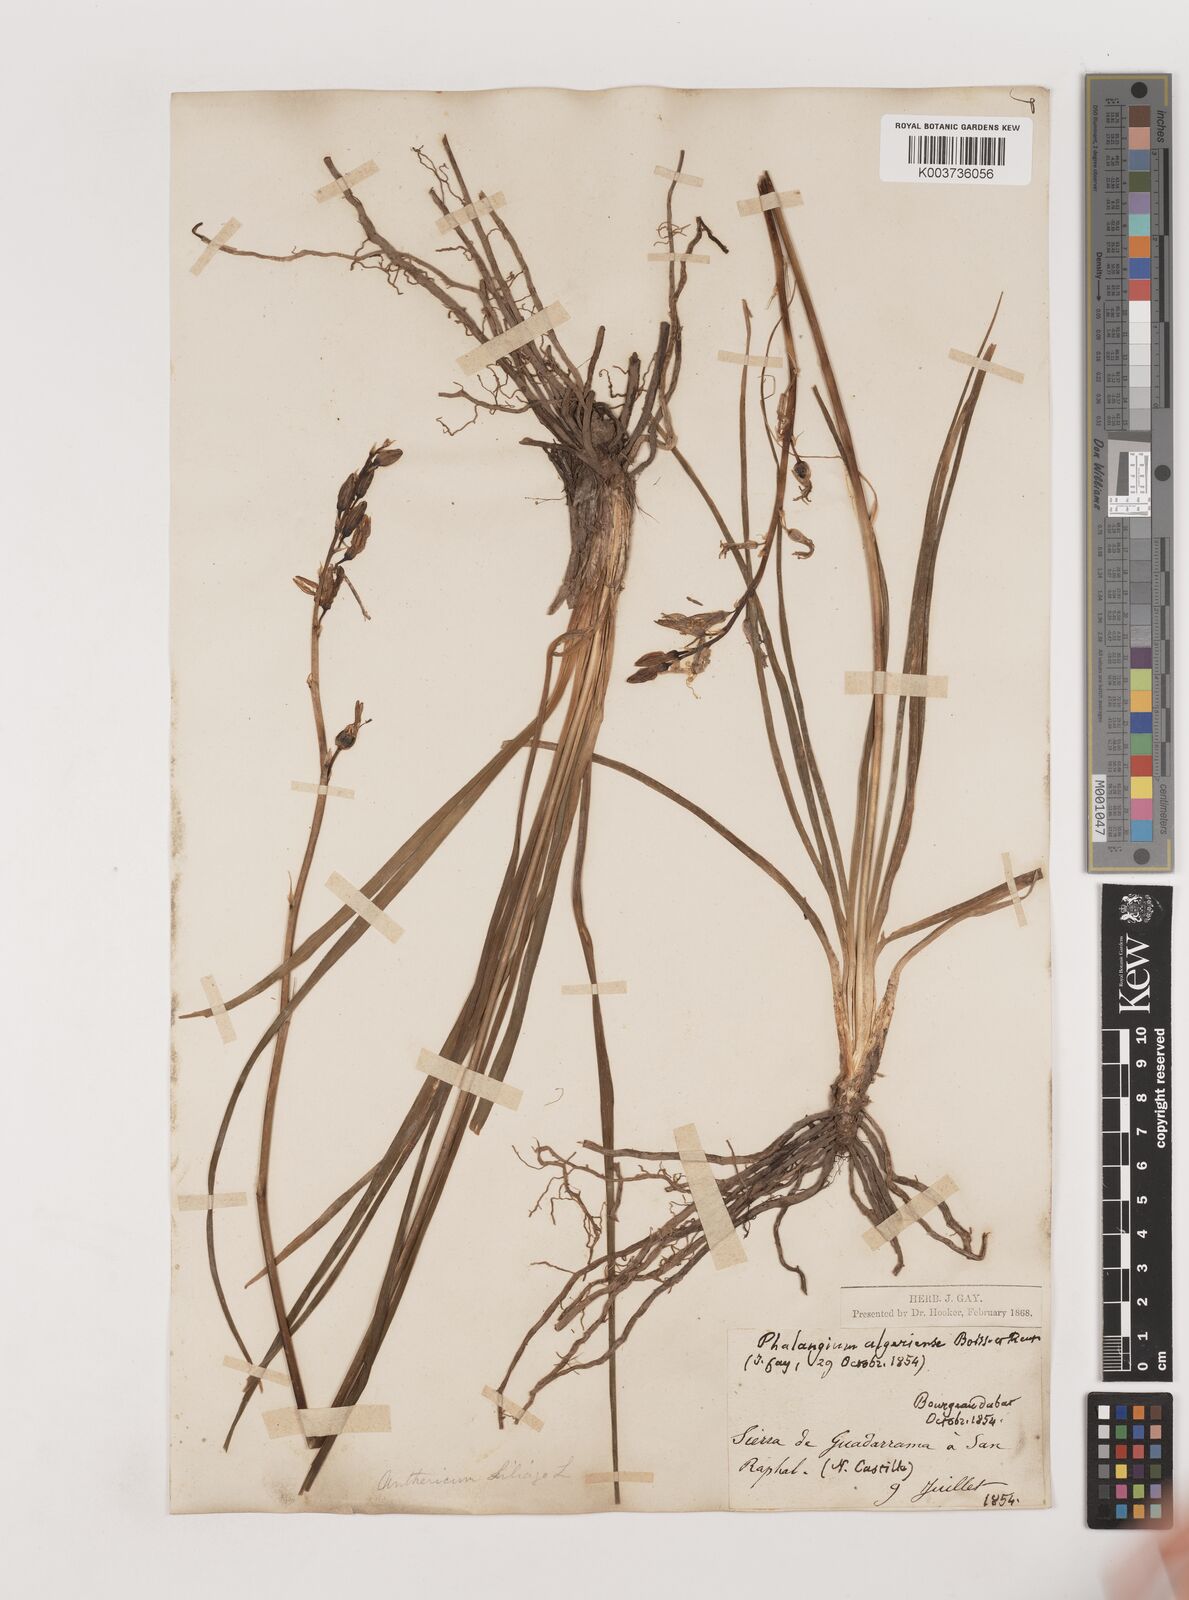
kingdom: Plantae
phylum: Tracheophyta
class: Liliopsida
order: Asparagales
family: Asparagaceae
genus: Anthericum
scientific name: Anthericum liliago
